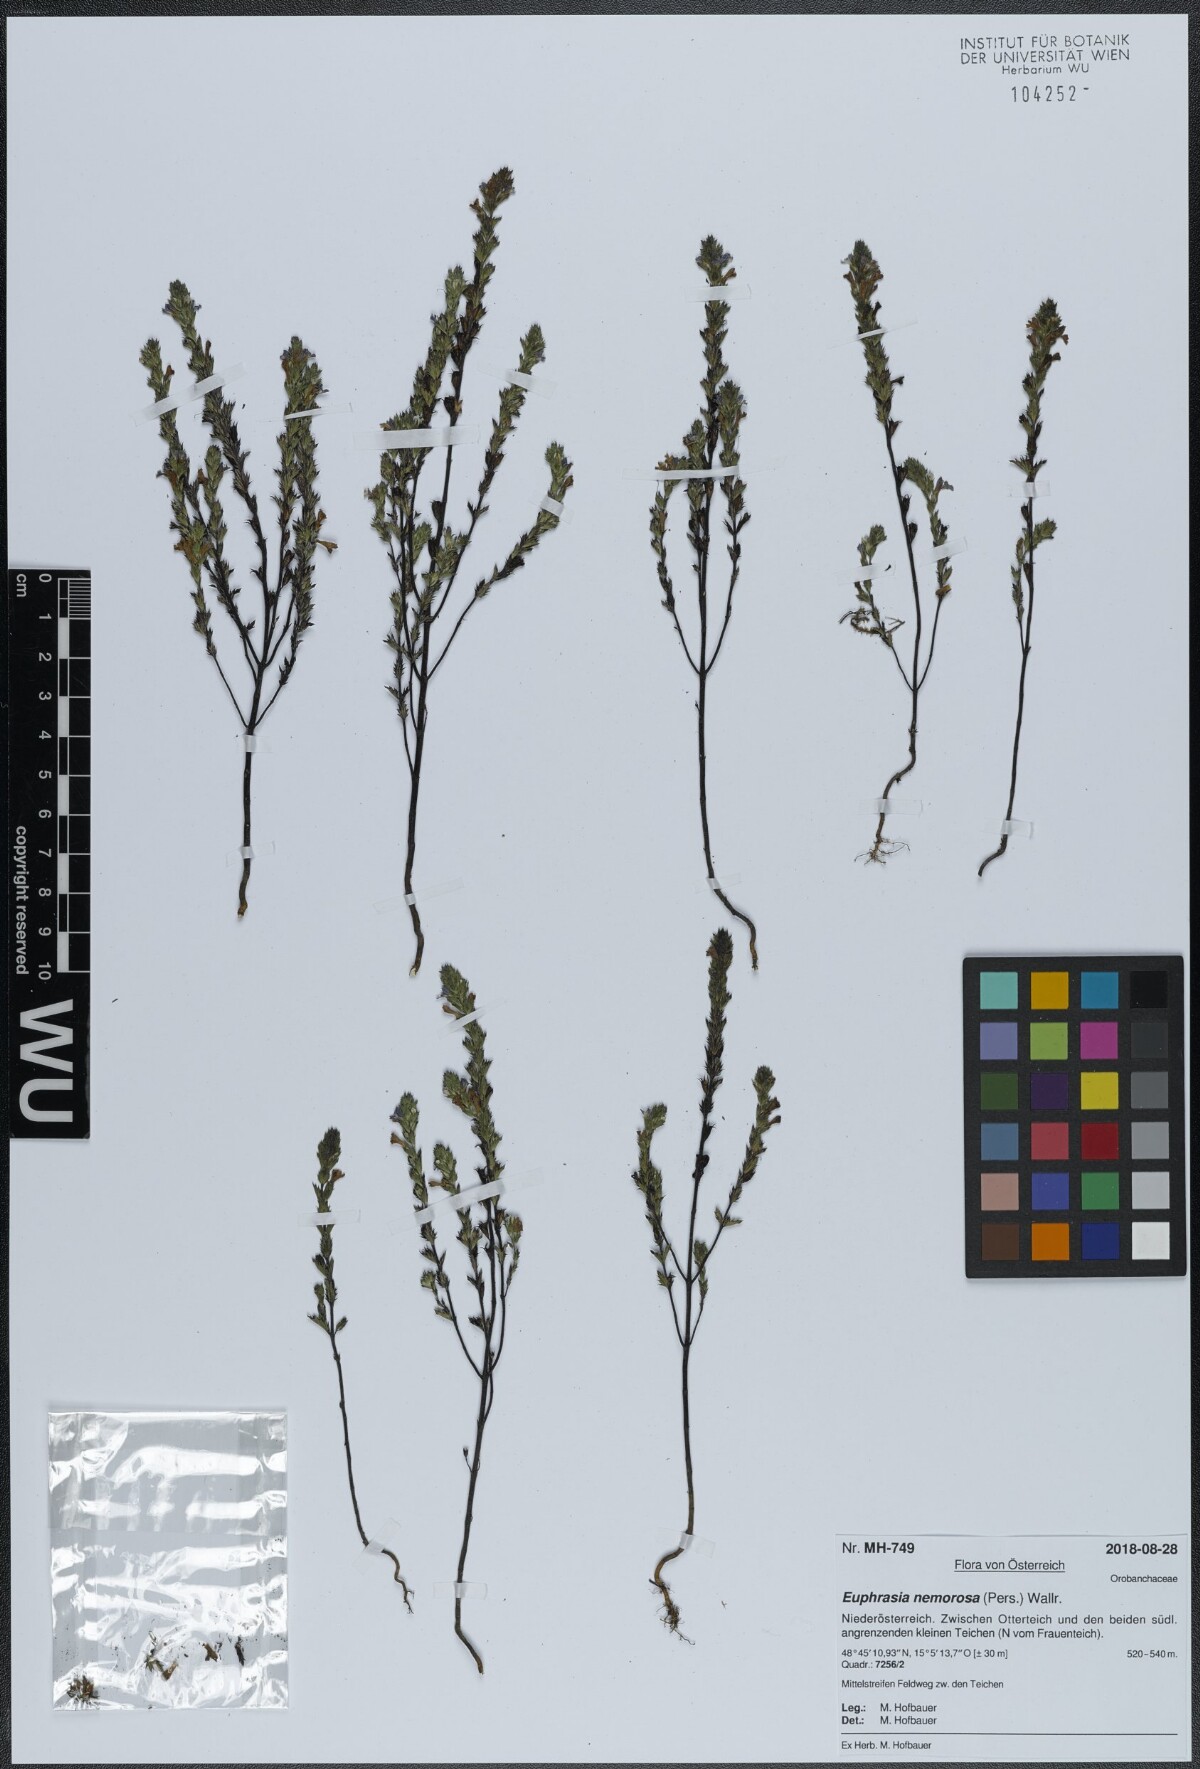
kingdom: Plantae
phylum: Tracheophyta
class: Magnoliopsida
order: Lamiales
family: Orobanchaceae
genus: Euphrasia
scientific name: Euphrasia nemorosa
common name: Common eyebright
